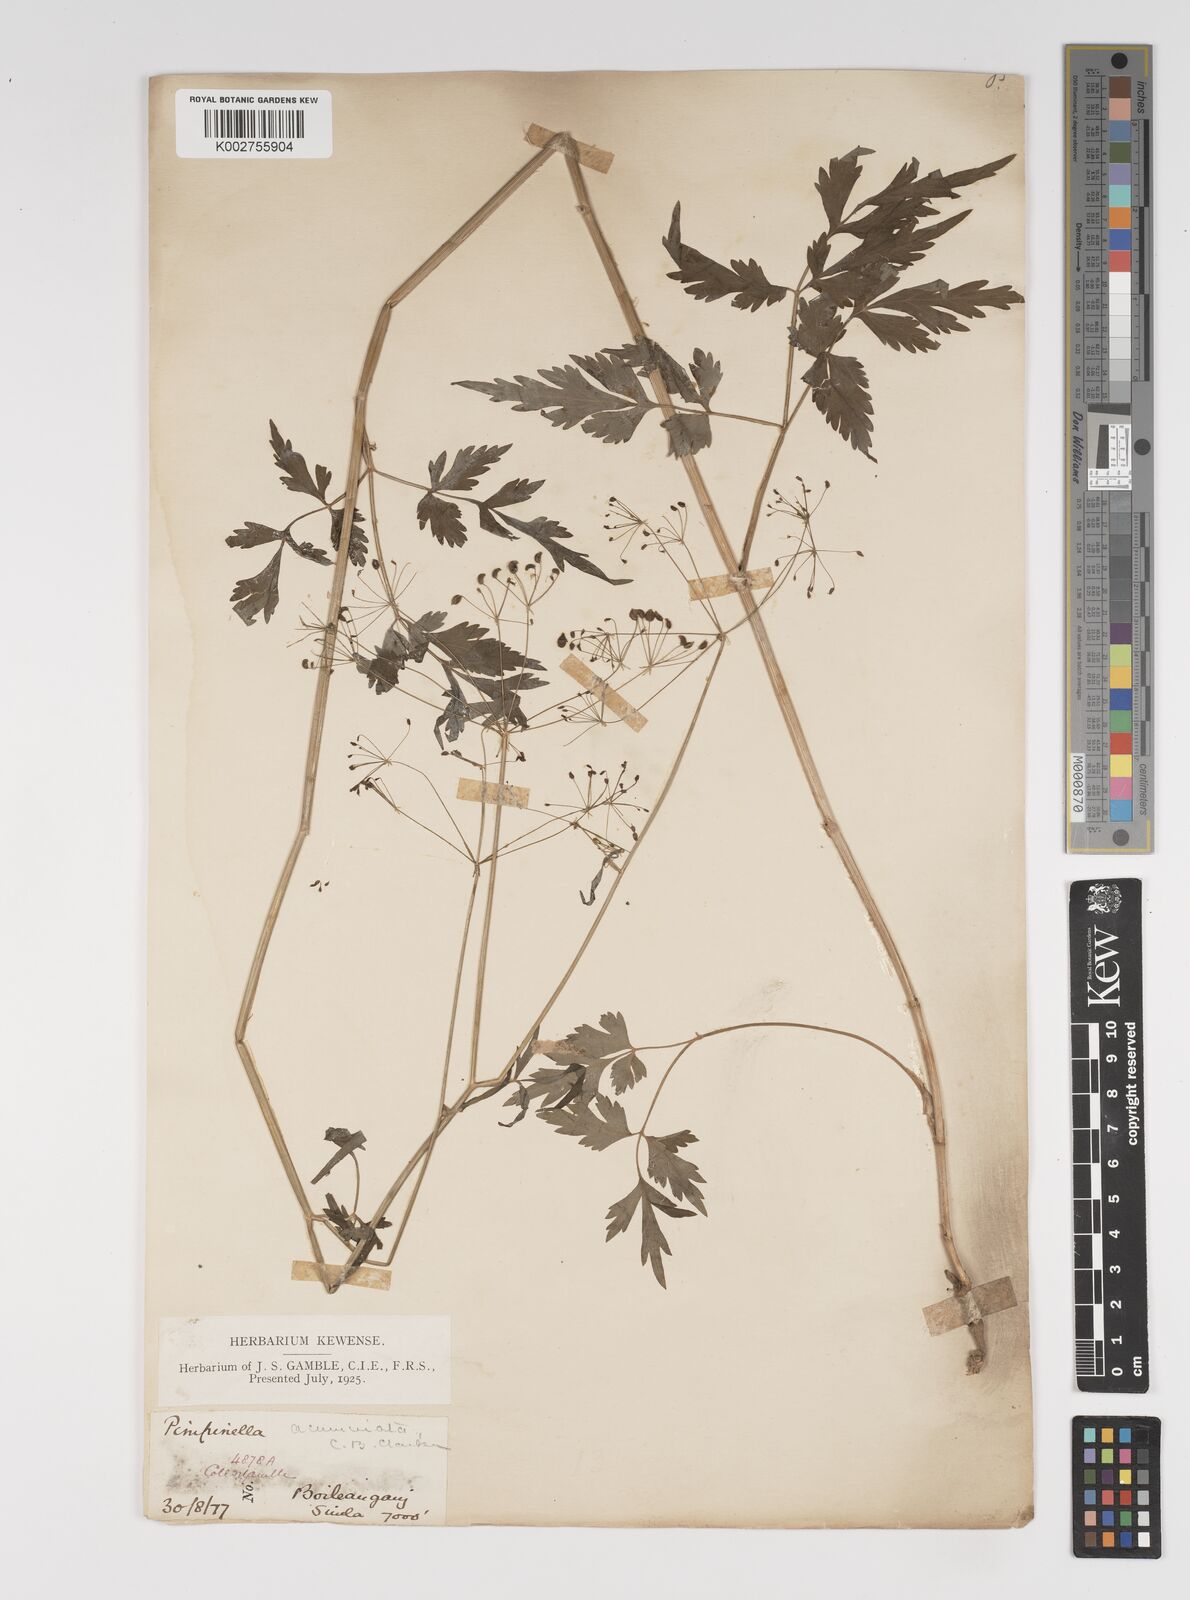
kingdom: Plantae
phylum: Tracheophyta
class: Magnoliopsida
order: Apiales
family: Apiaceae
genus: Pimpinella
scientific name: Pimpinella acuminata
